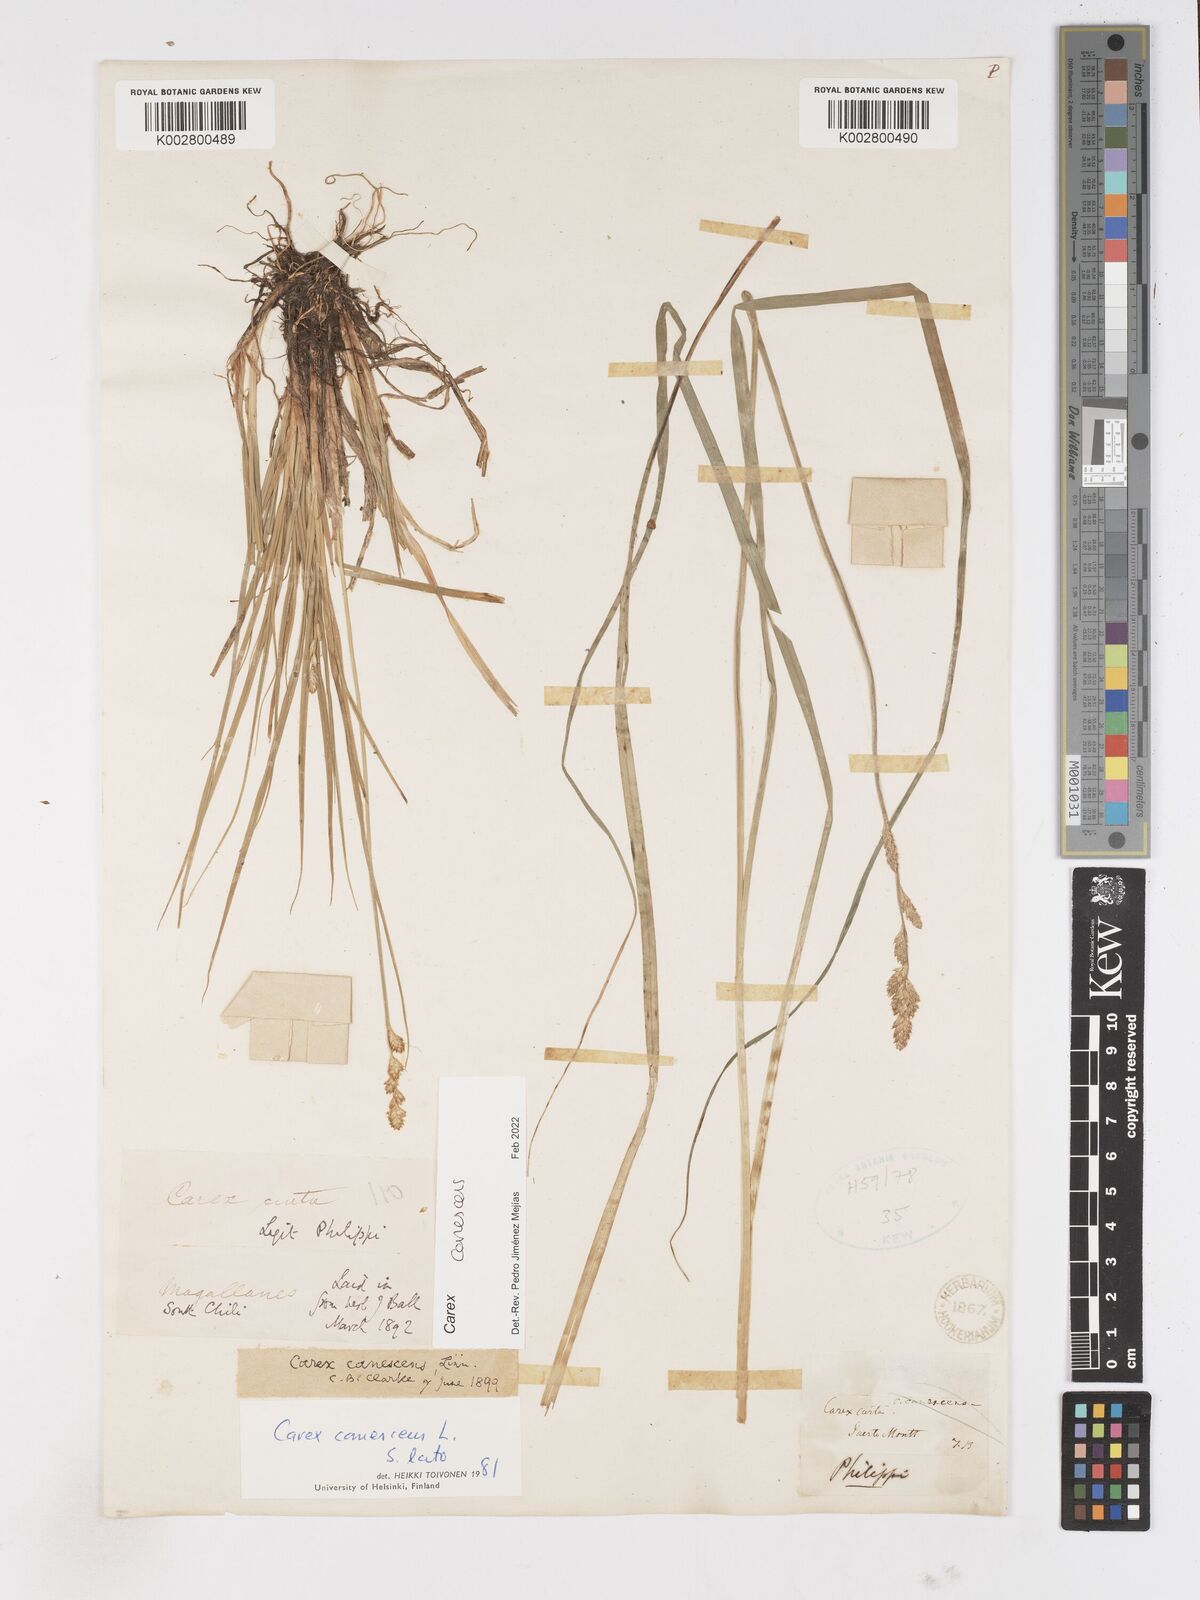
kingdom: Plantae
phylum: Tracheophyta
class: Liliopsida
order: Poales
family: Cyperaceae
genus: Carex
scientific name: Carex curta
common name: White sedge
